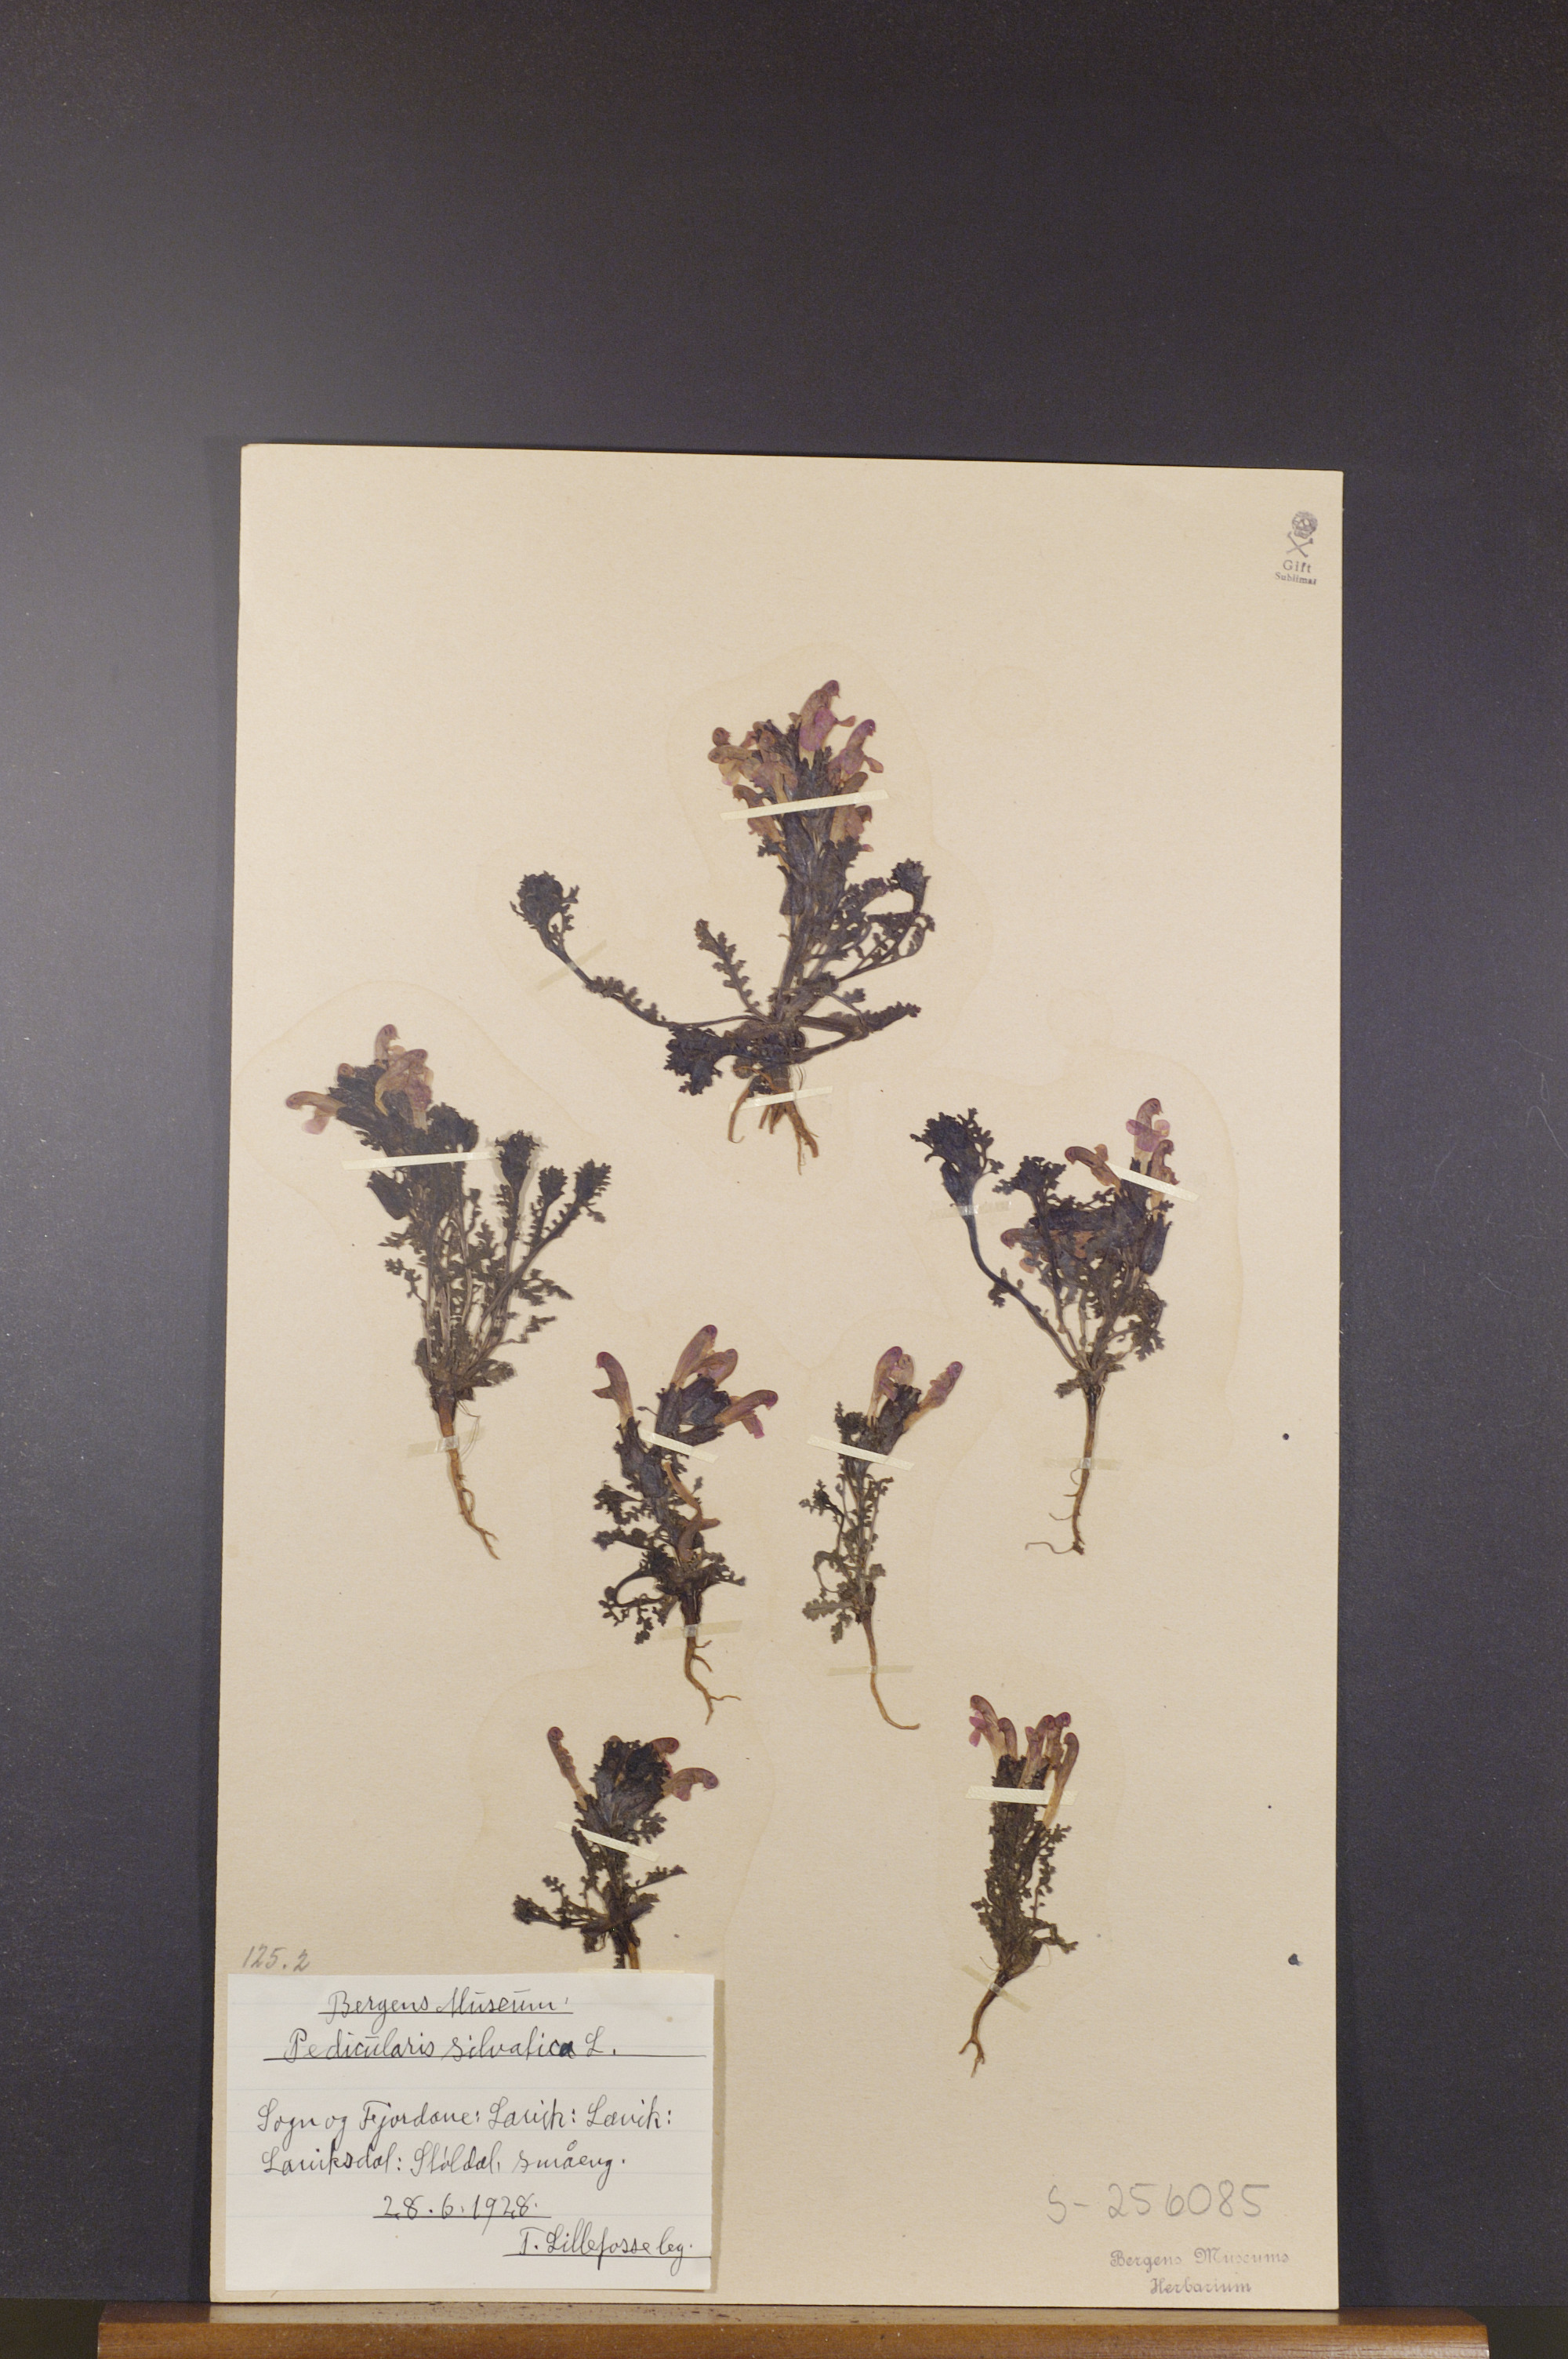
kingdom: Plantae
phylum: Tracheophyta
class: Magnoliopsida
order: Lamiales
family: Orobanchaceae
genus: Pedicularis
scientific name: Pedicularis sylvatica
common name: Lousewort
